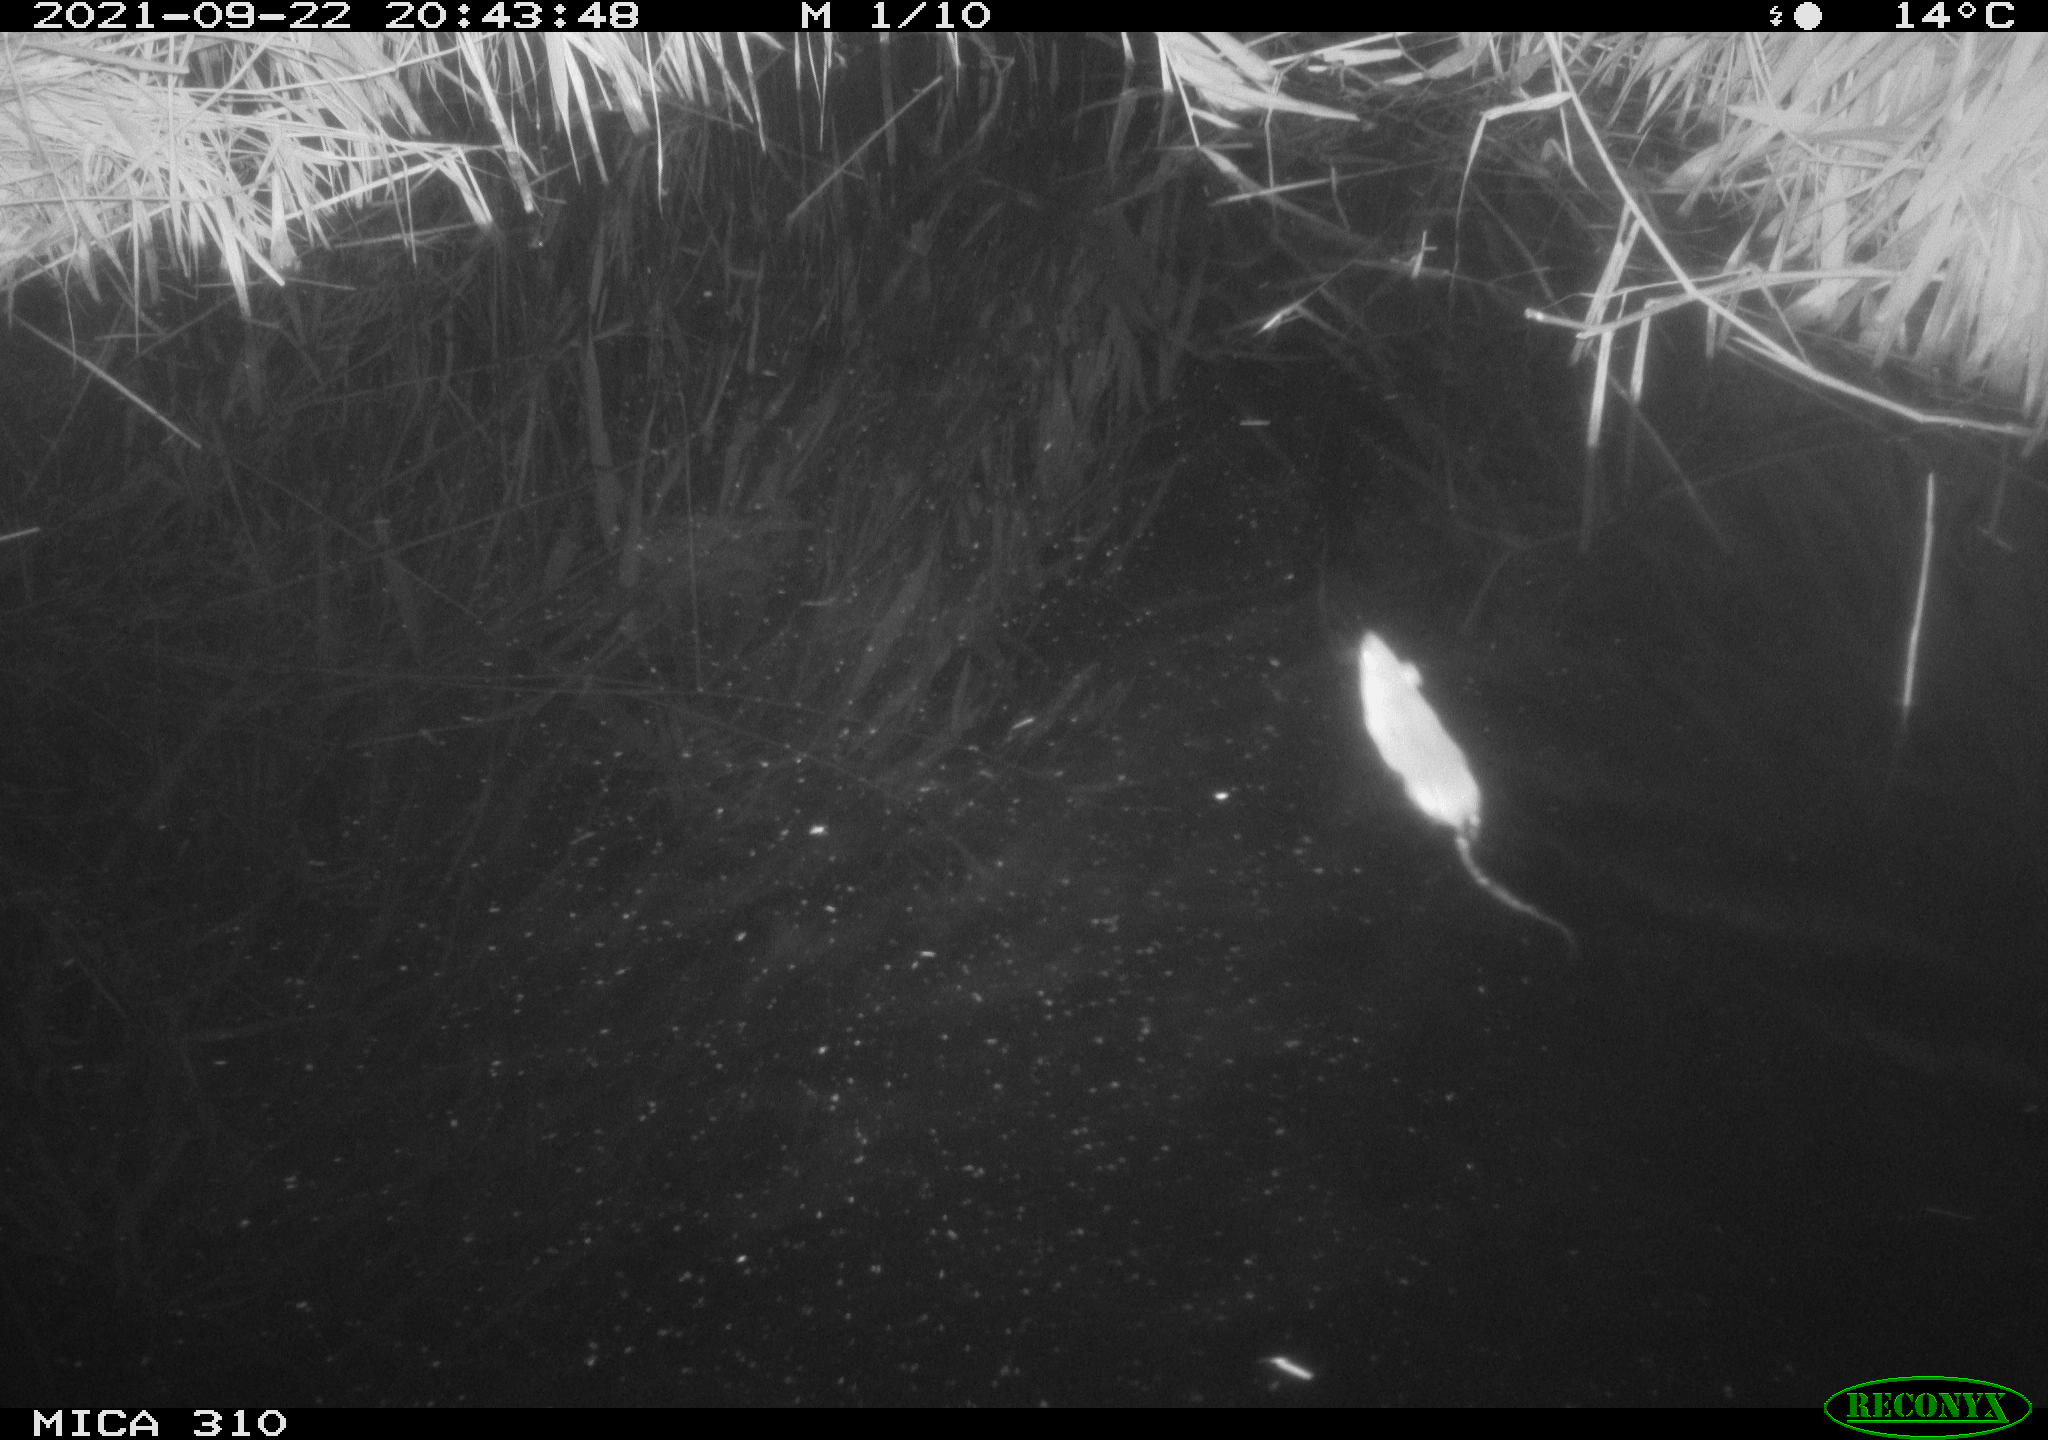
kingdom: Animalia
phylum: Chordata
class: Mammalia
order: Rodentia
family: Muridae
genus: Rattus
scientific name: Rattus norvegicus
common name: Brown rat
